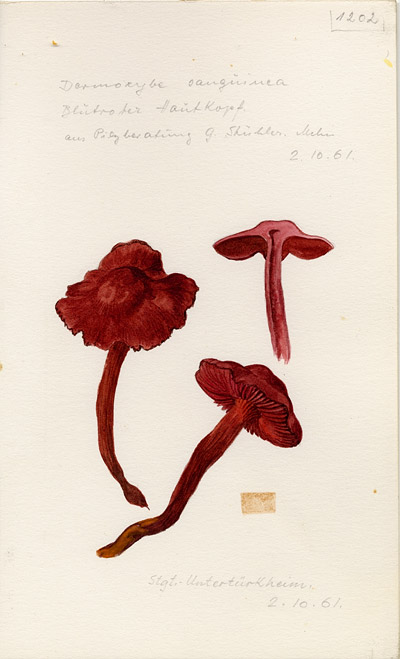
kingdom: Fungi
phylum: Basidiomycota
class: Agaricomycetes
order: Agaricales
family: Cortinariaceae
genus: Cortinarius
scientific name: Cortinarius sanguineus
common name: Bloodred webcap
